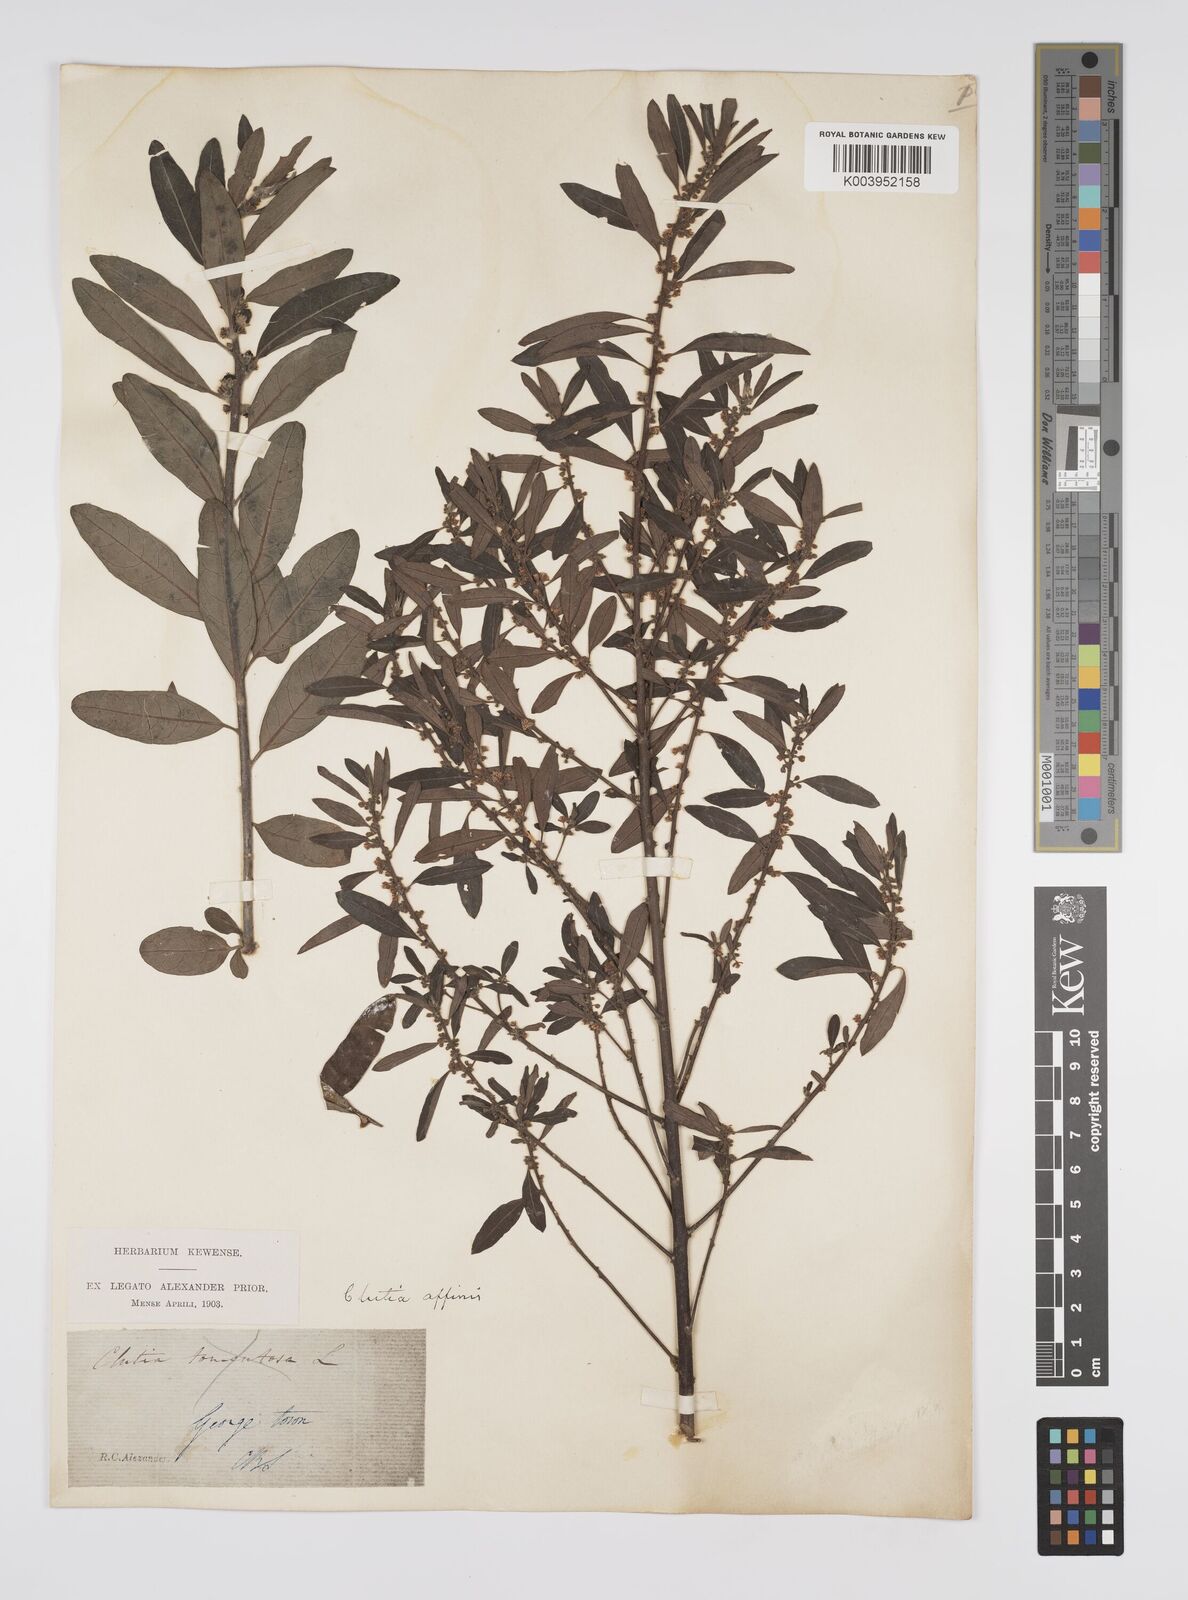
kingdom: Plantae
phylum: Tracheophyta
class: Magnoliopsida
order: Malpighiales
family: Peraceae
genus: Clutia
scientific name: Clutia affinis
